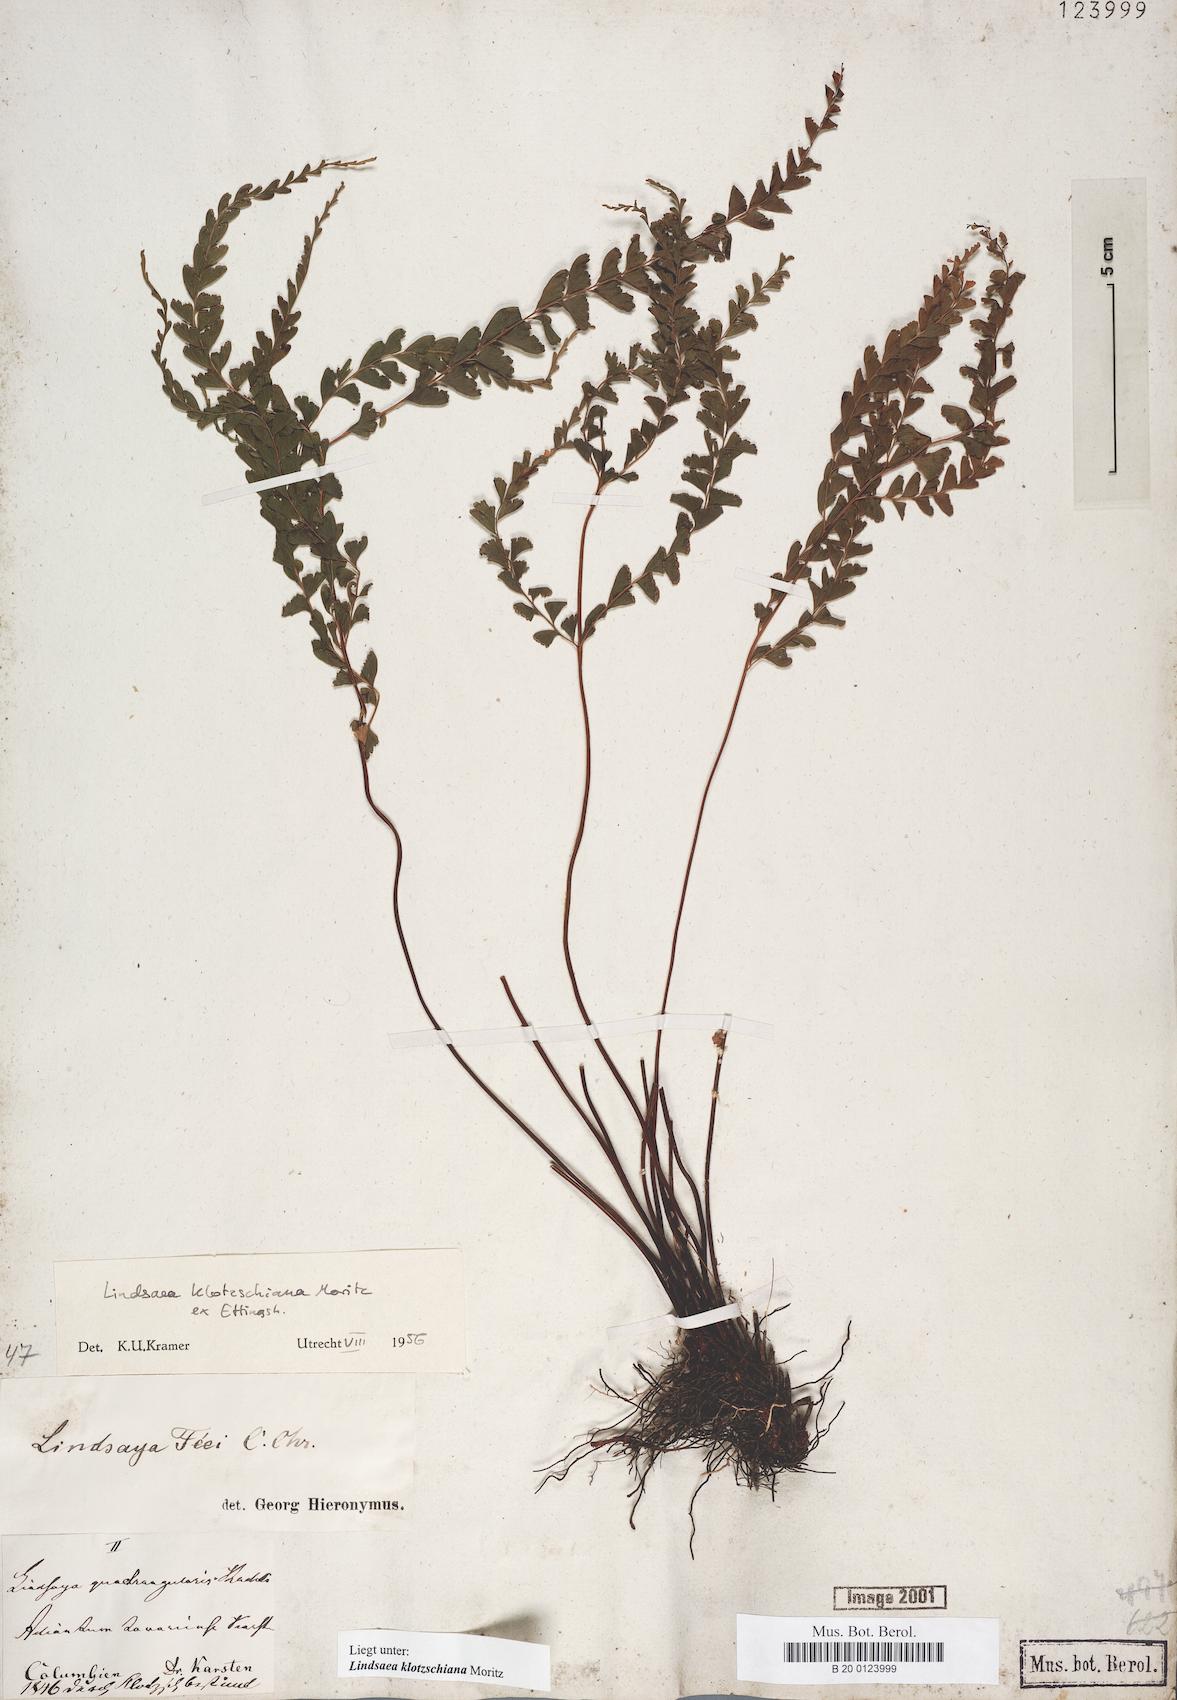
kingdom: Plantae
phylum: Tracheophyta
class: Polypodiopsida
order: Polypodiales
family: Lindsaeaceae
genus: Lindsaea
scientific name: Lindsaea klotzschiana
